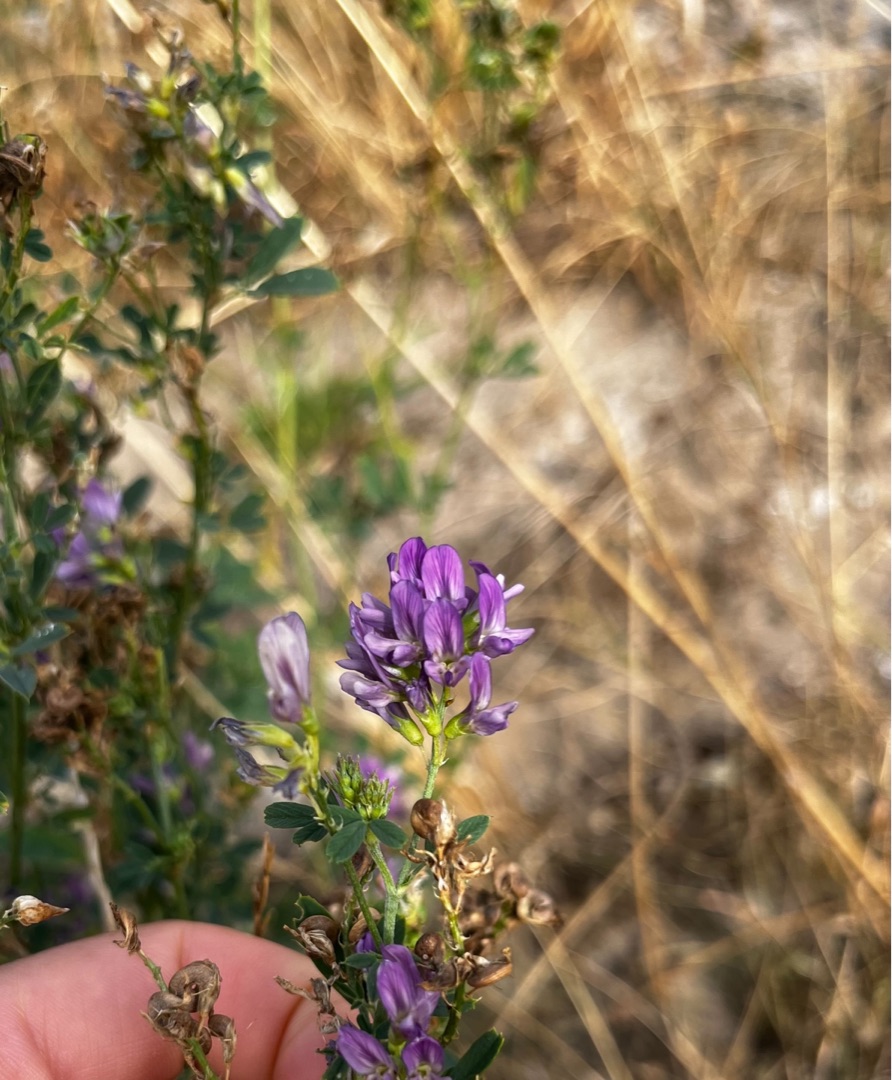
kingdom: Plantae
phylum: Tracheophyta
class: Magnoliopsida
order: Fabales
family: Fabaceae
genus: Medicago
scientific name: Medicago sativa
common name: Lucerne
